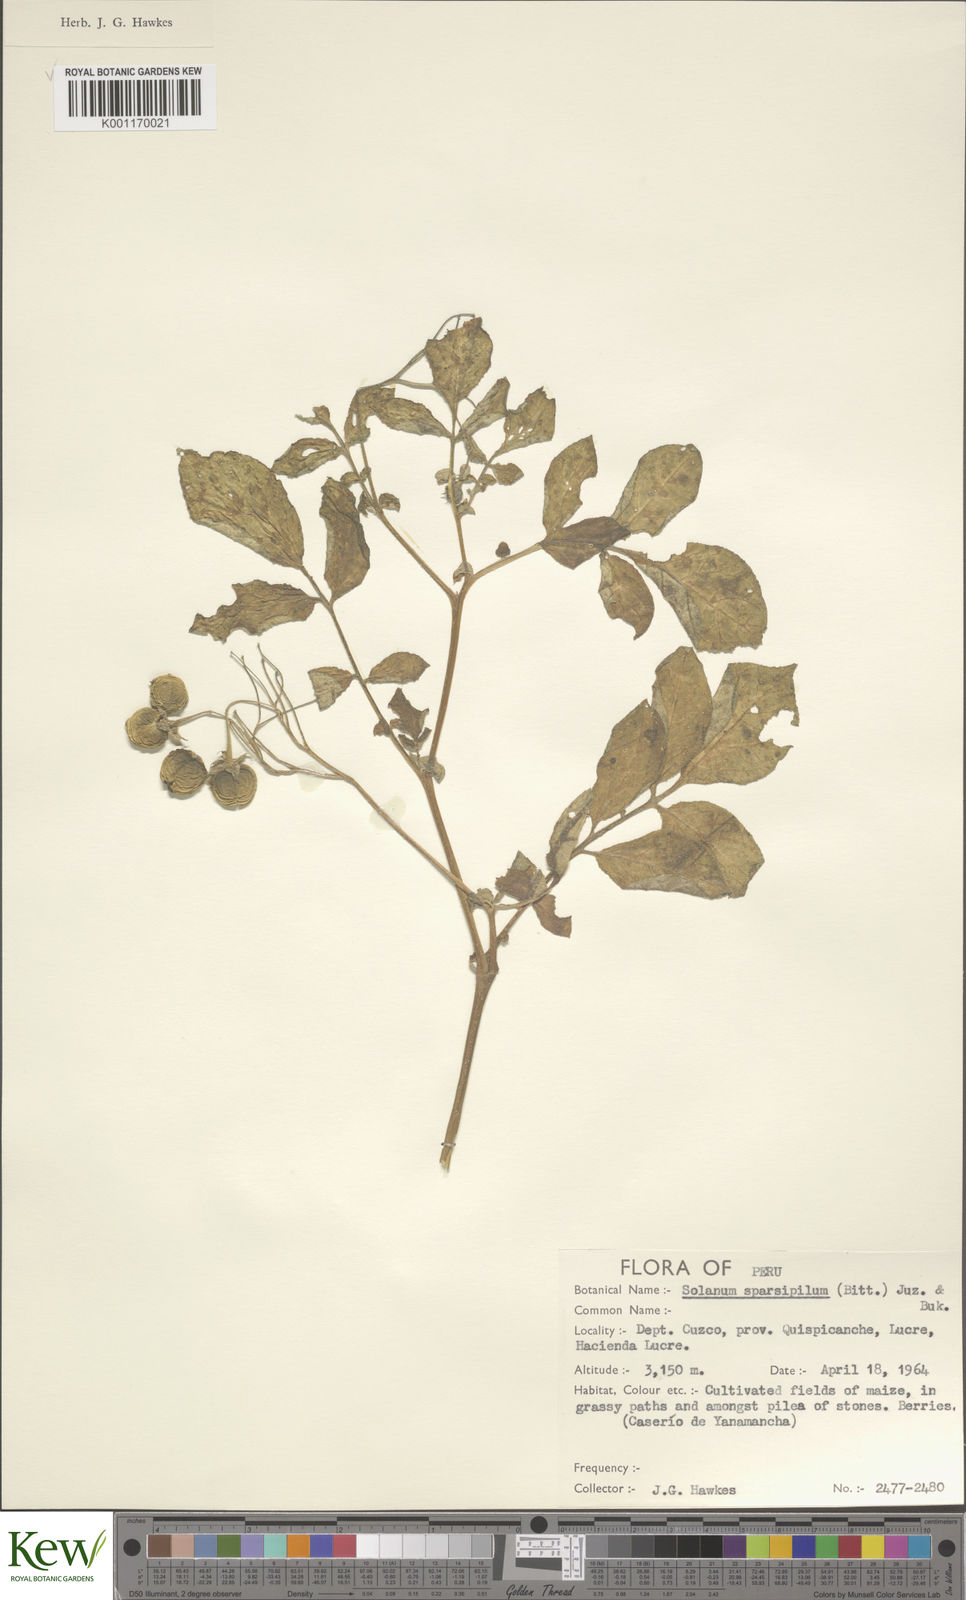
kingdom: Plantae
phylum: Tracheophyta
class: Magnoliopsida
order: Solanales
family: Solanaceae
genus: Solanum
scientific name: Solanum brevicaule
